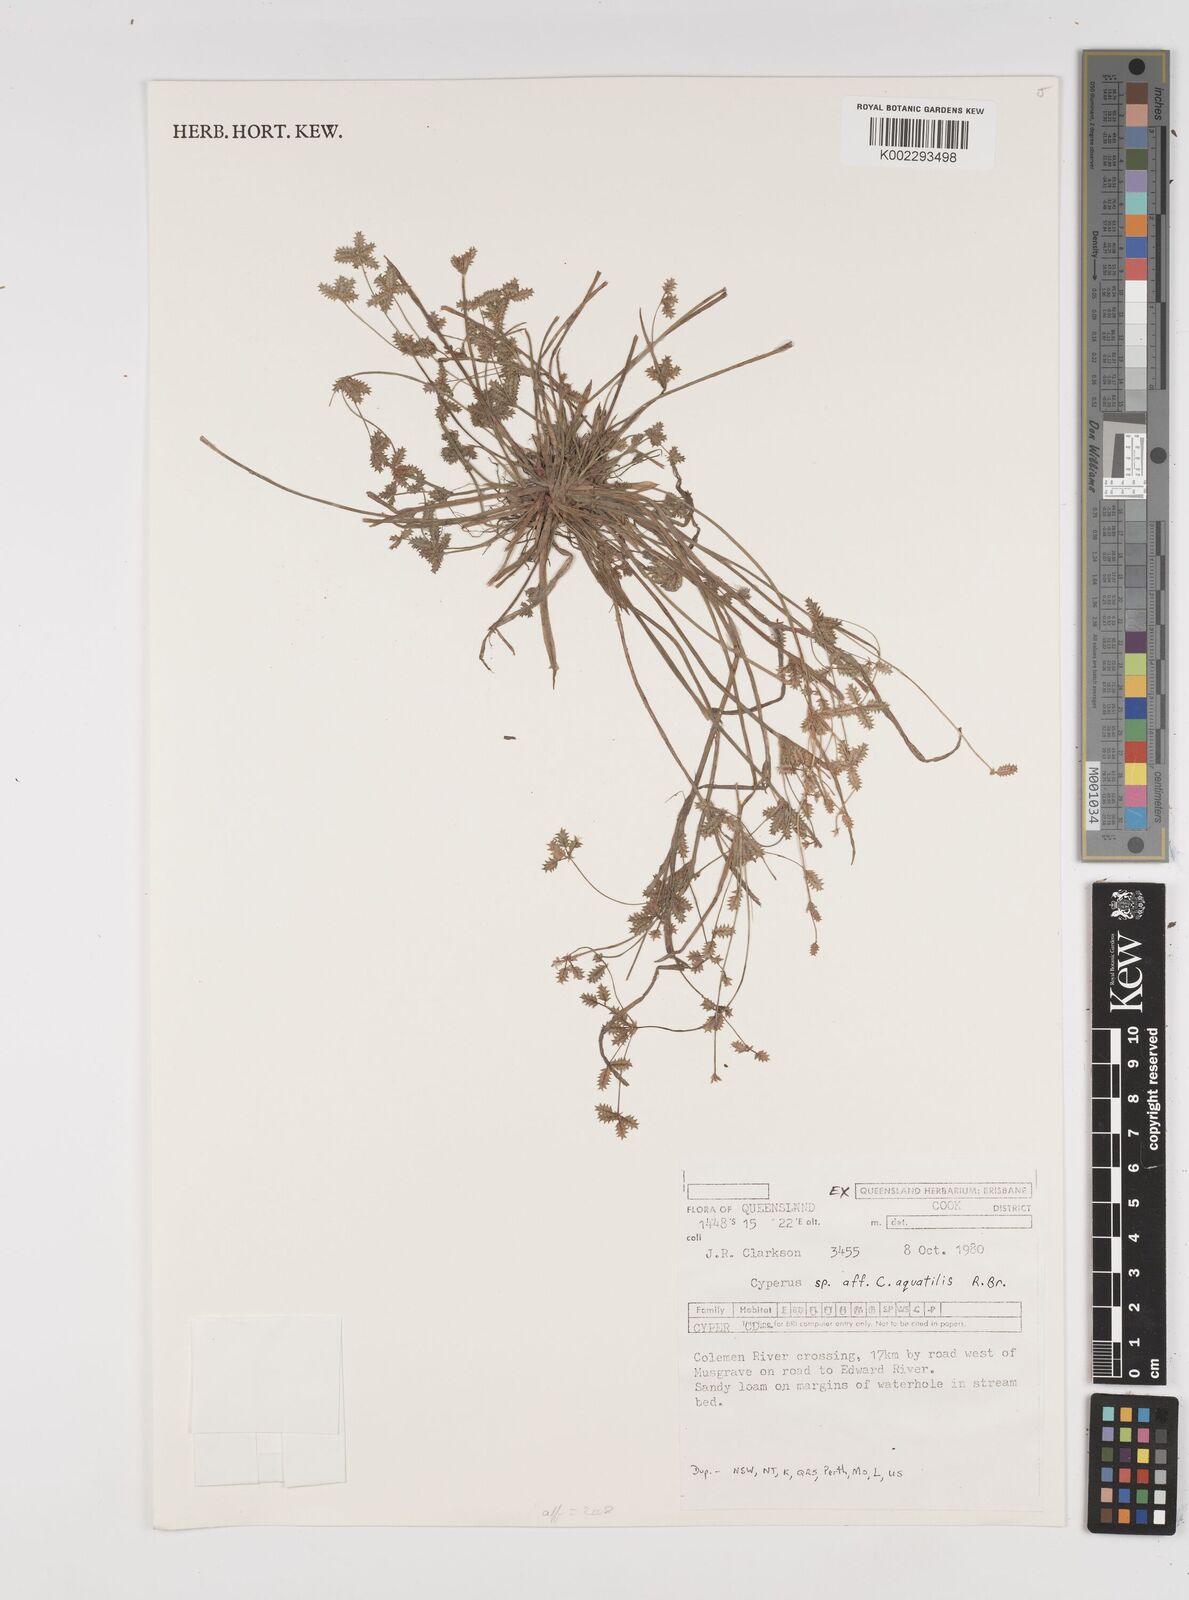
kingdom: Plantae
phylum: Tracheophyta
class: Liliopsida
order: Poales
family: Cyperaceae
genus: Cyperus
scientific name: Cyperus trinervis
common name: Australian flatsedge
